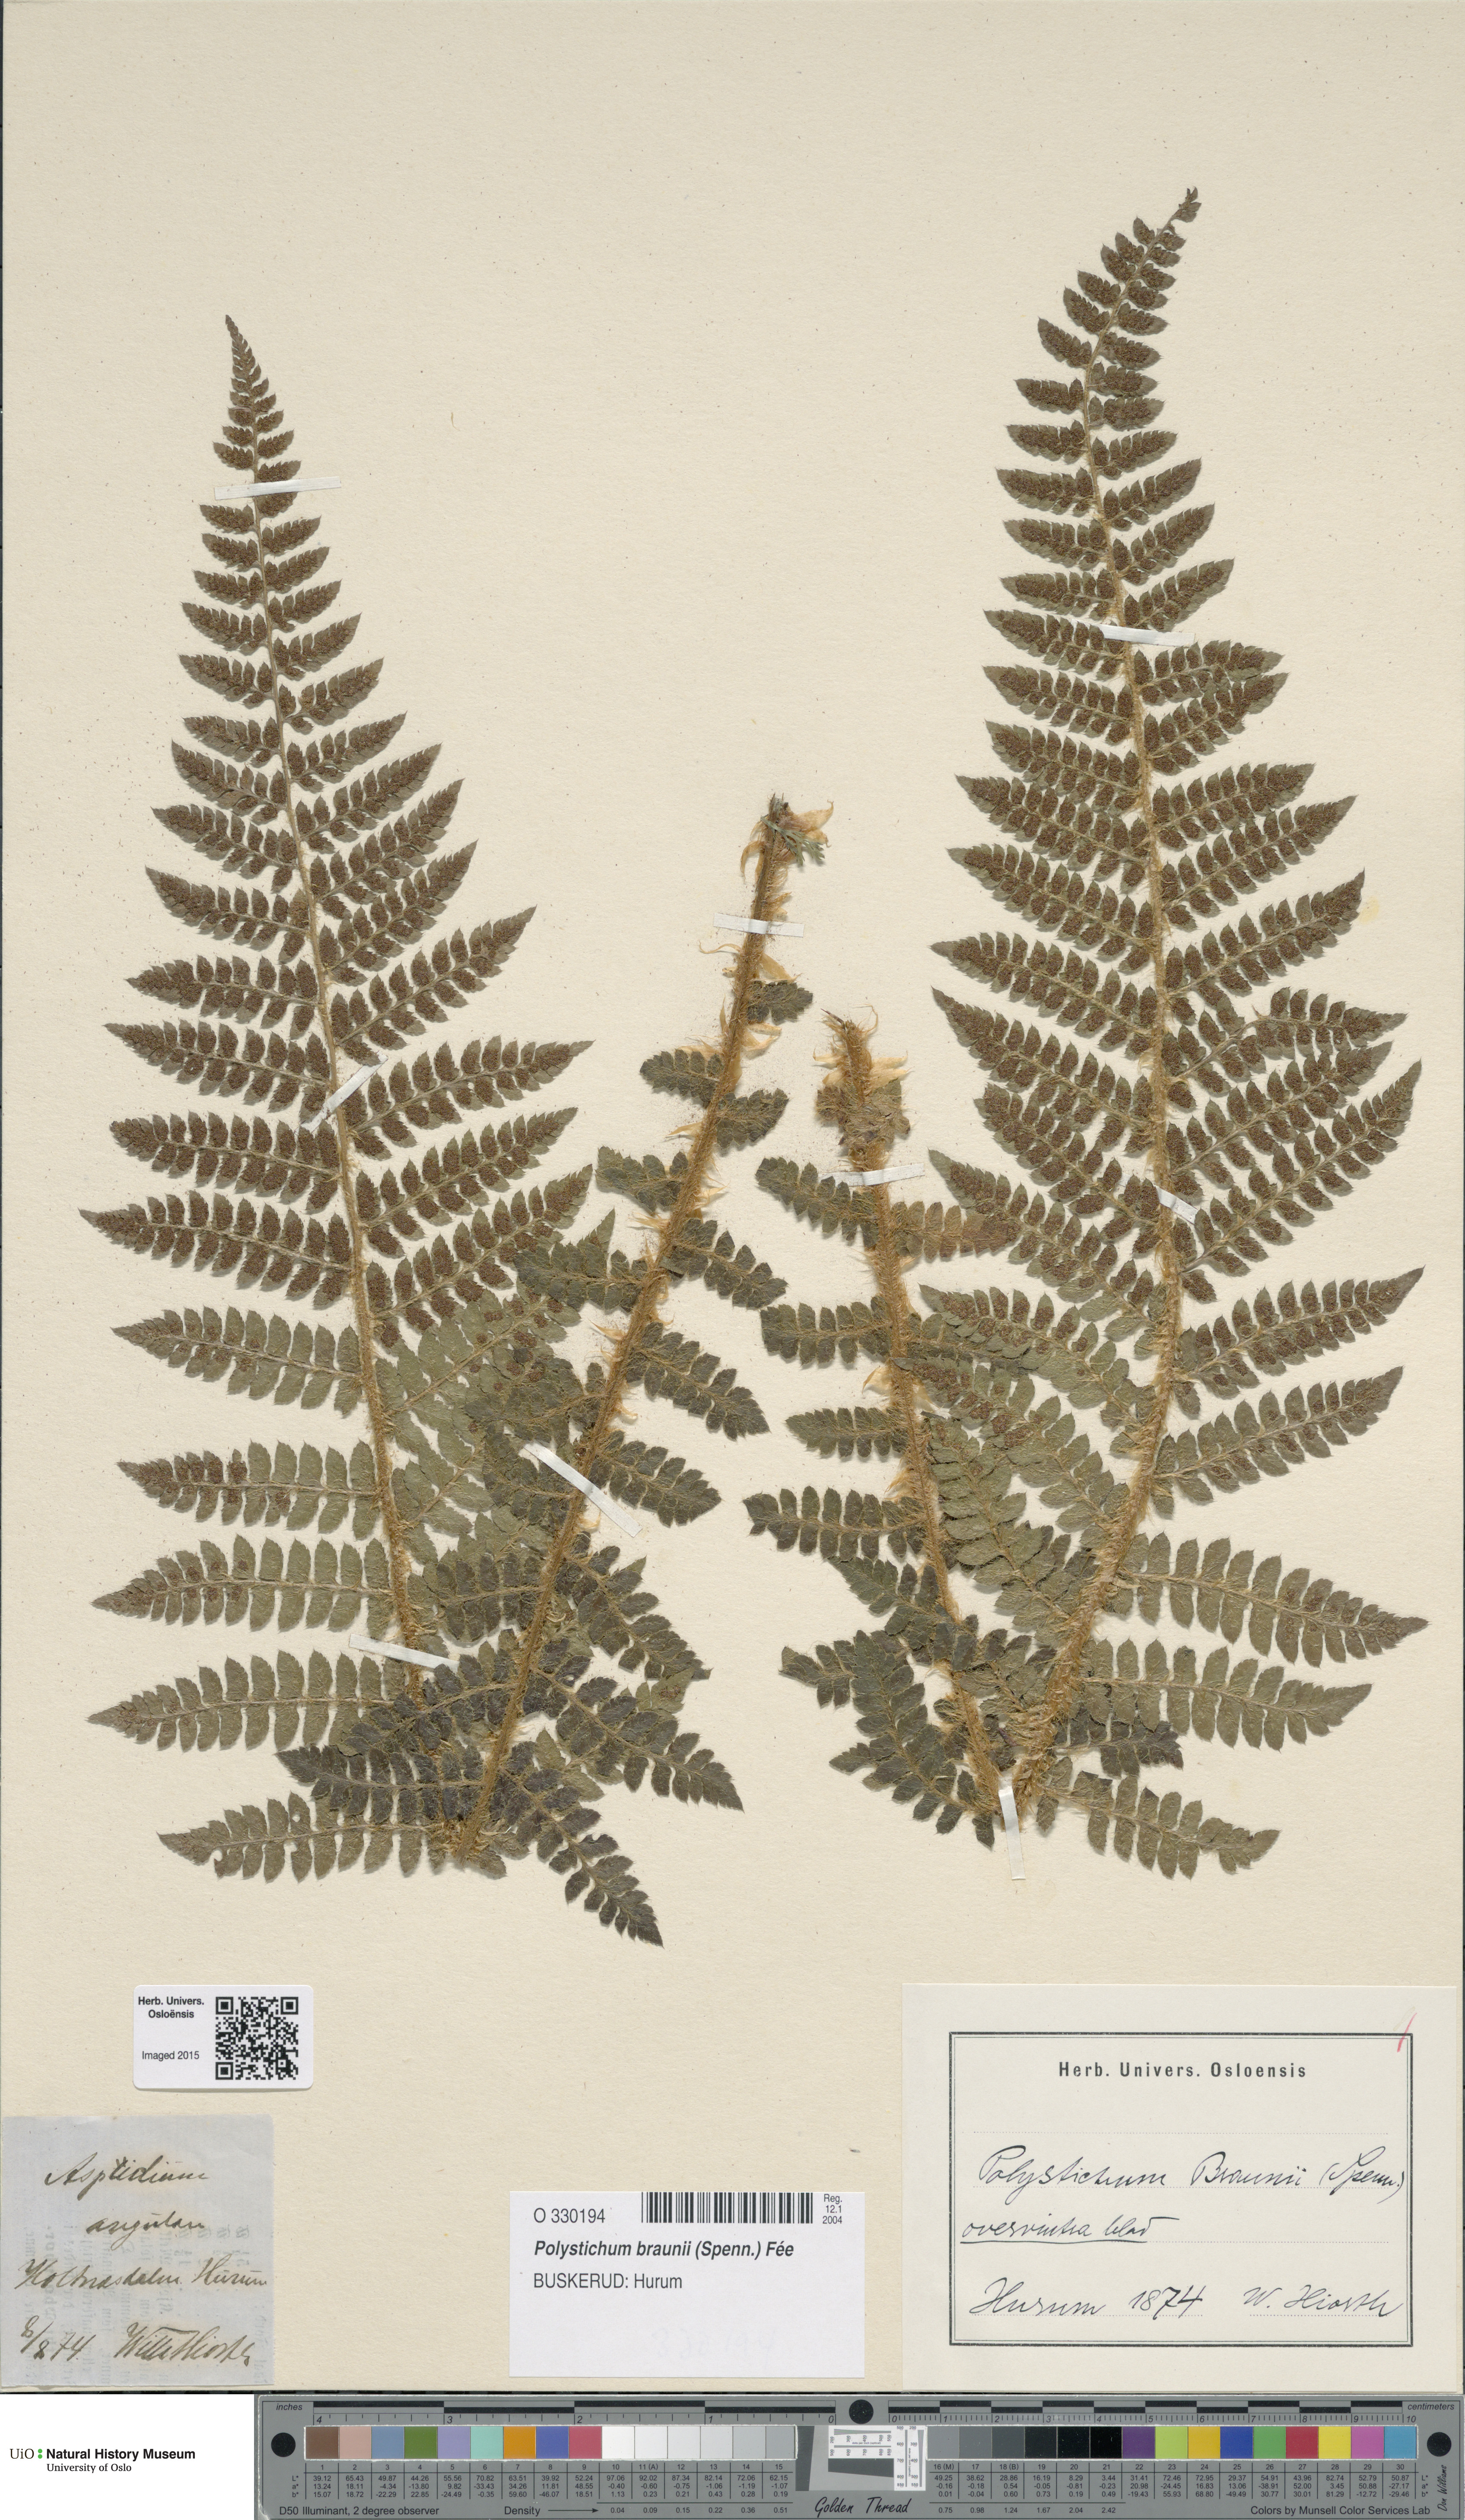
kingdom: Plantae
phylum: Tracheophyta
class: Polypodiopsida
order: Polypodiales
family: Dryopteridaceae
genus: Polystichum
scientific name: Polystichum braunii
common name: Braun's holly fern
